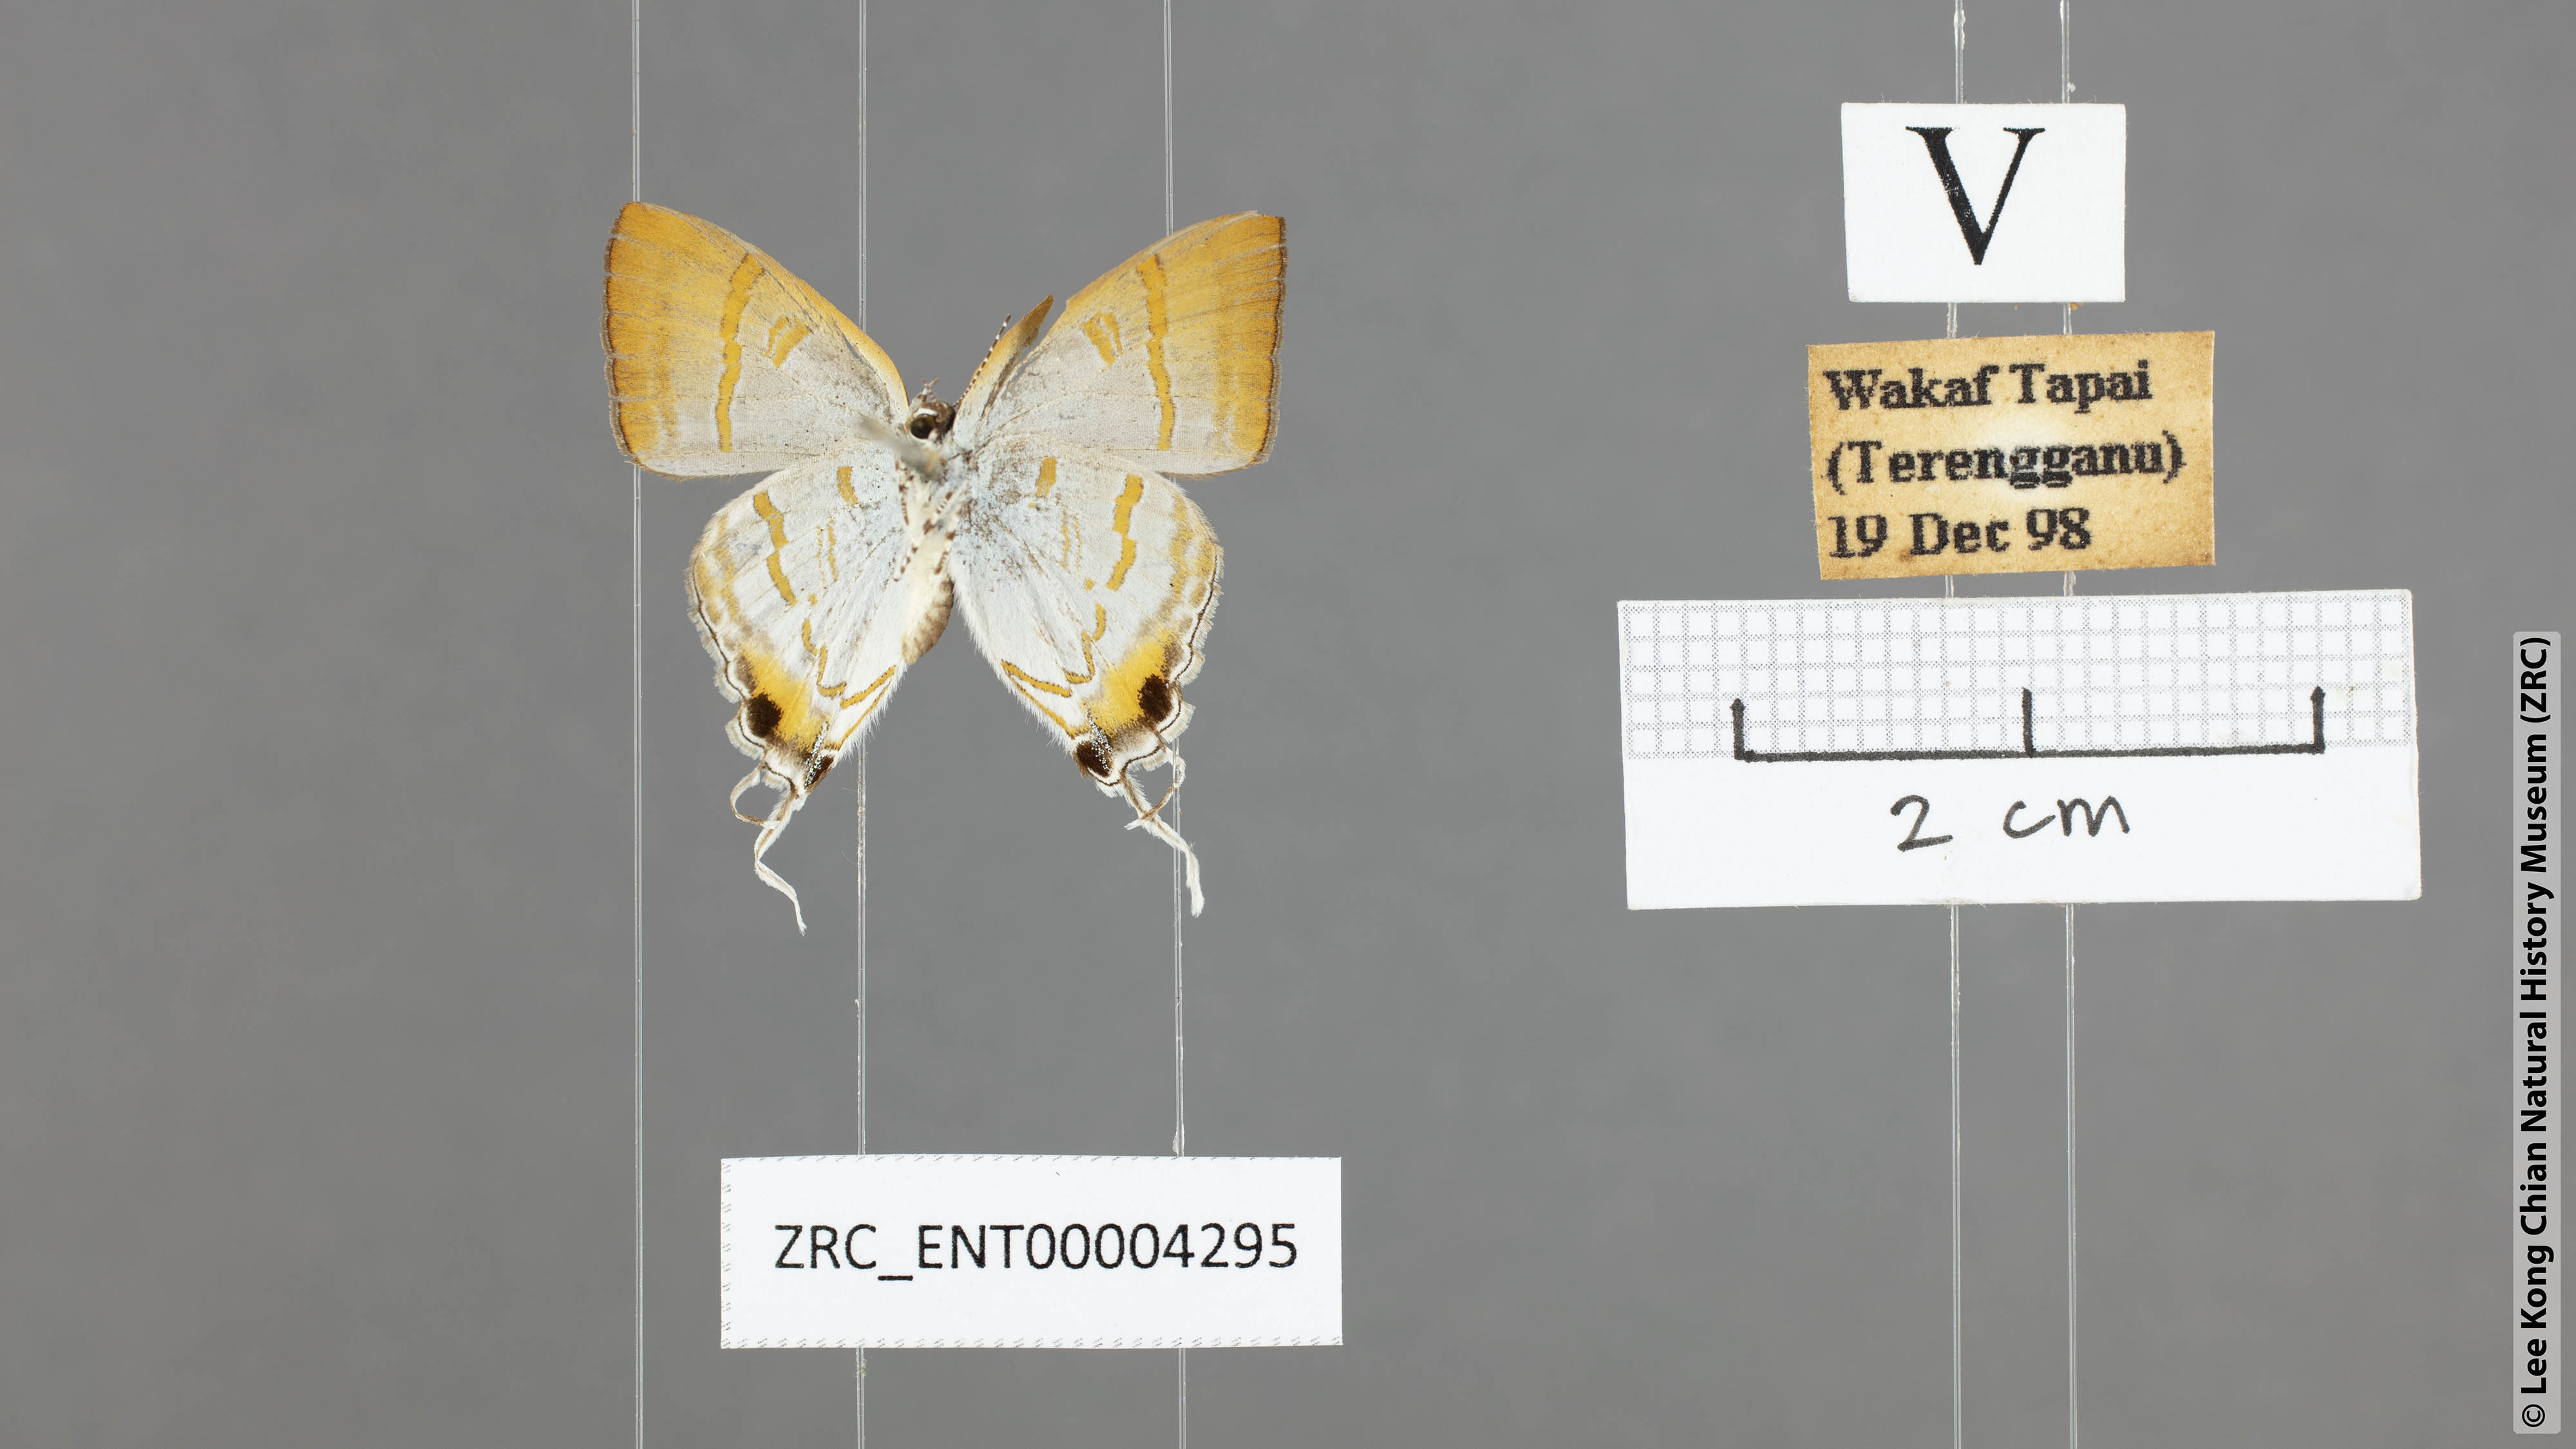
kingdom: Animalia
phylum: Arthropoda
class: Insecta
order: Lepidoptera
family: Lycaenidae
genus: Hypolycaena
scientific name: Hypolycaena thecloides
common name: Dark tit
